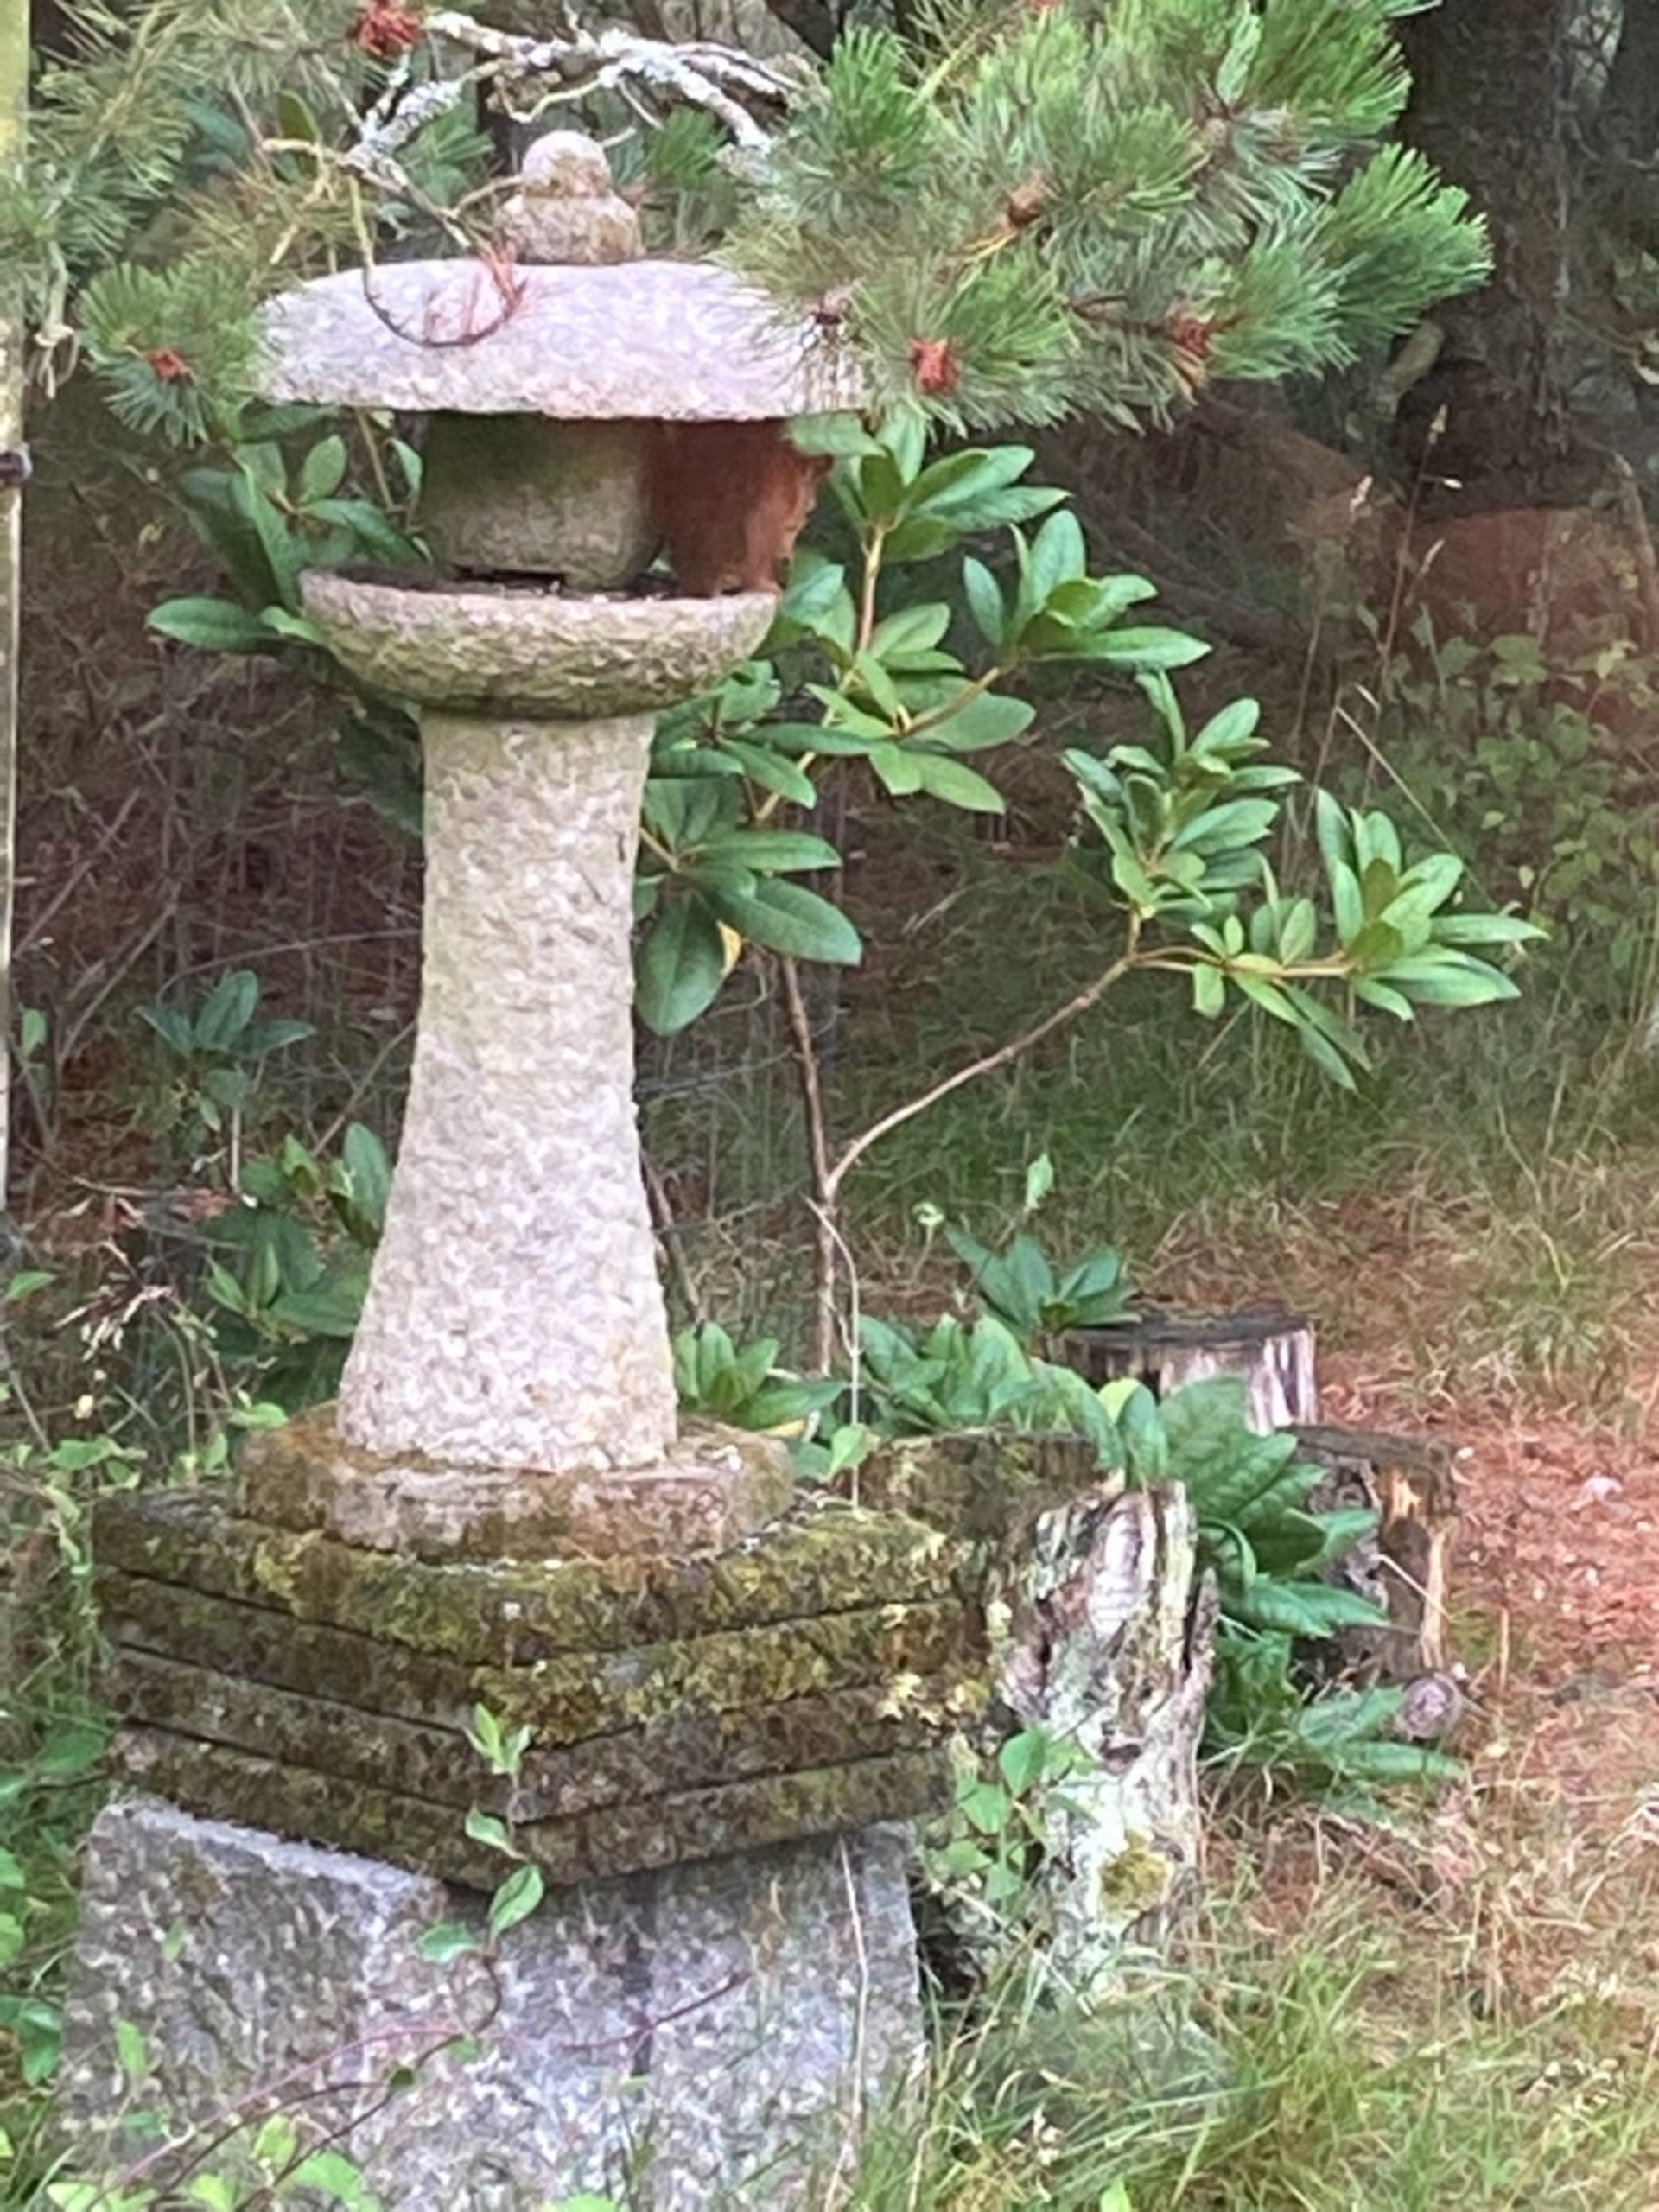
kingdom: Animalia
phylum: Chordata
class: Mammalia
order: Rodentia
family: Sciuridae
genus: Sciurus
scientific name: Sciurus vulgaris
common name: Egern
